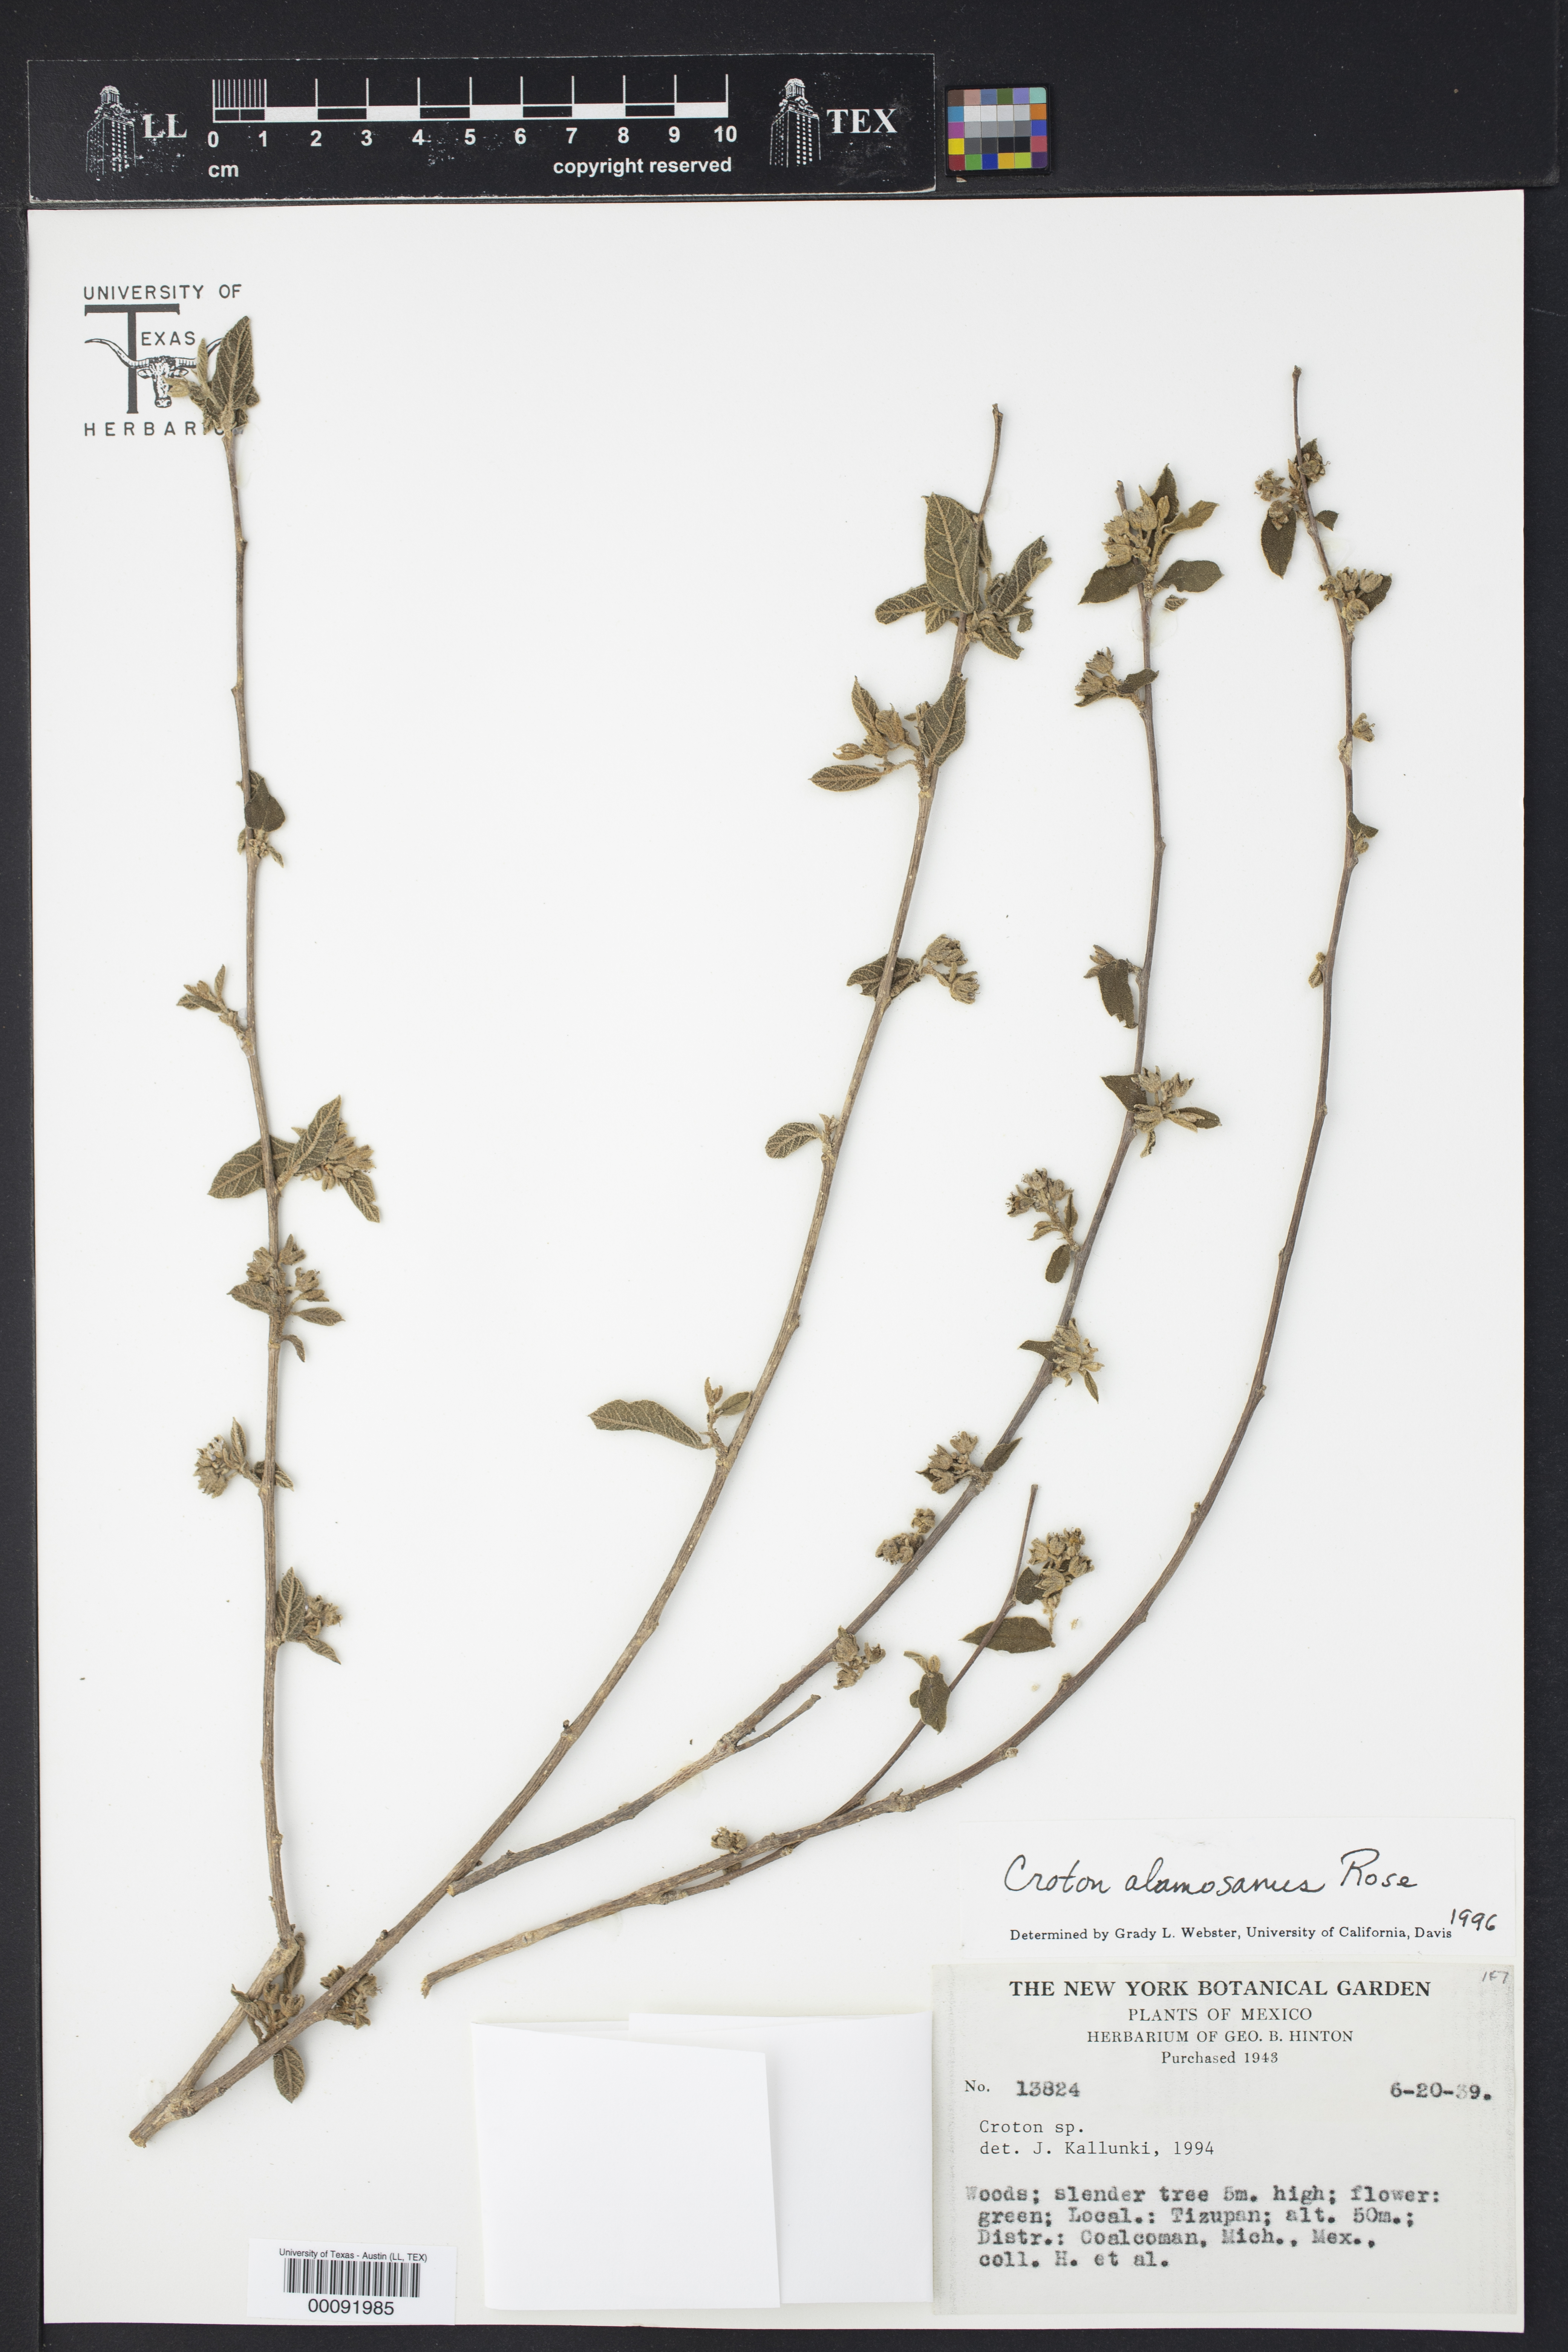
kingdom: Plantae
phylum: Tracheophyta
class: Magnoliopsida
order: Malpighiales
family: Euphorbiaceae
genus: Croton
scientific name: Croton alamosanus
